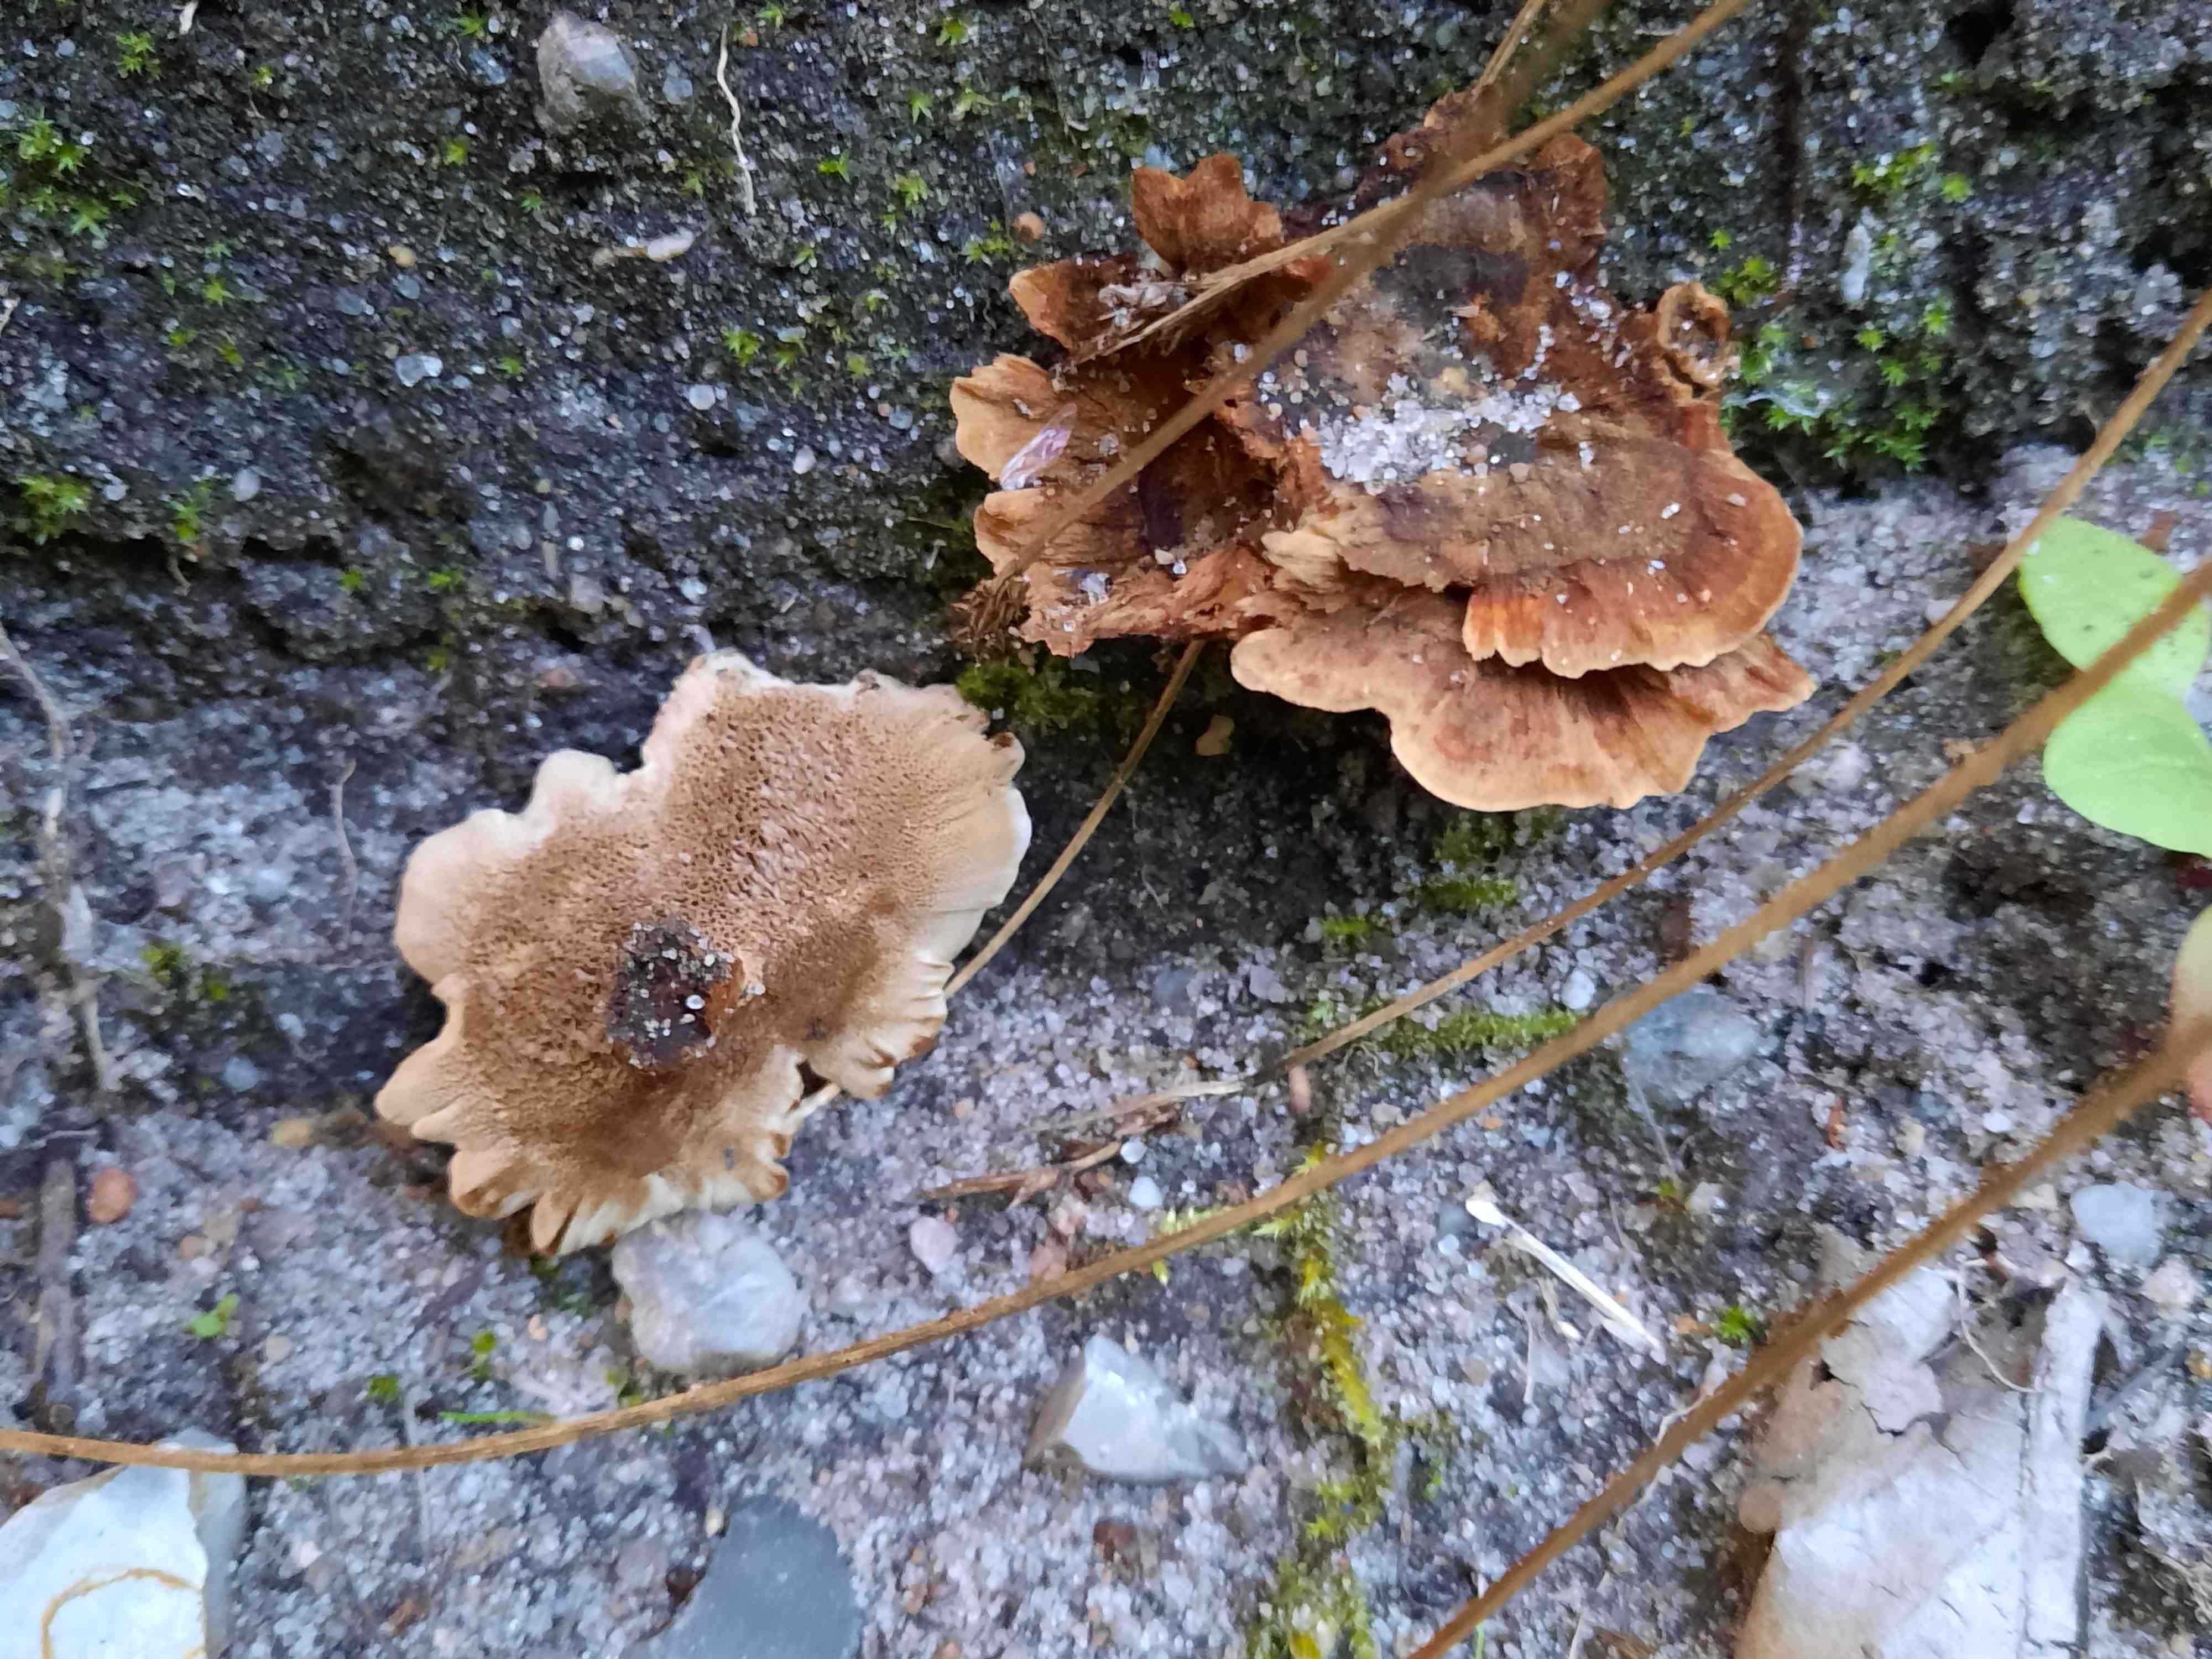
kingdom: Fungi
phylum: Basidiomycota
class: Agaricomycetes
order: Hymenochaetales
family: Hymenochaetaceae
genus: Coltricia
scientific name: Coltricia perennis
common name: almindelig sandporesvamp
